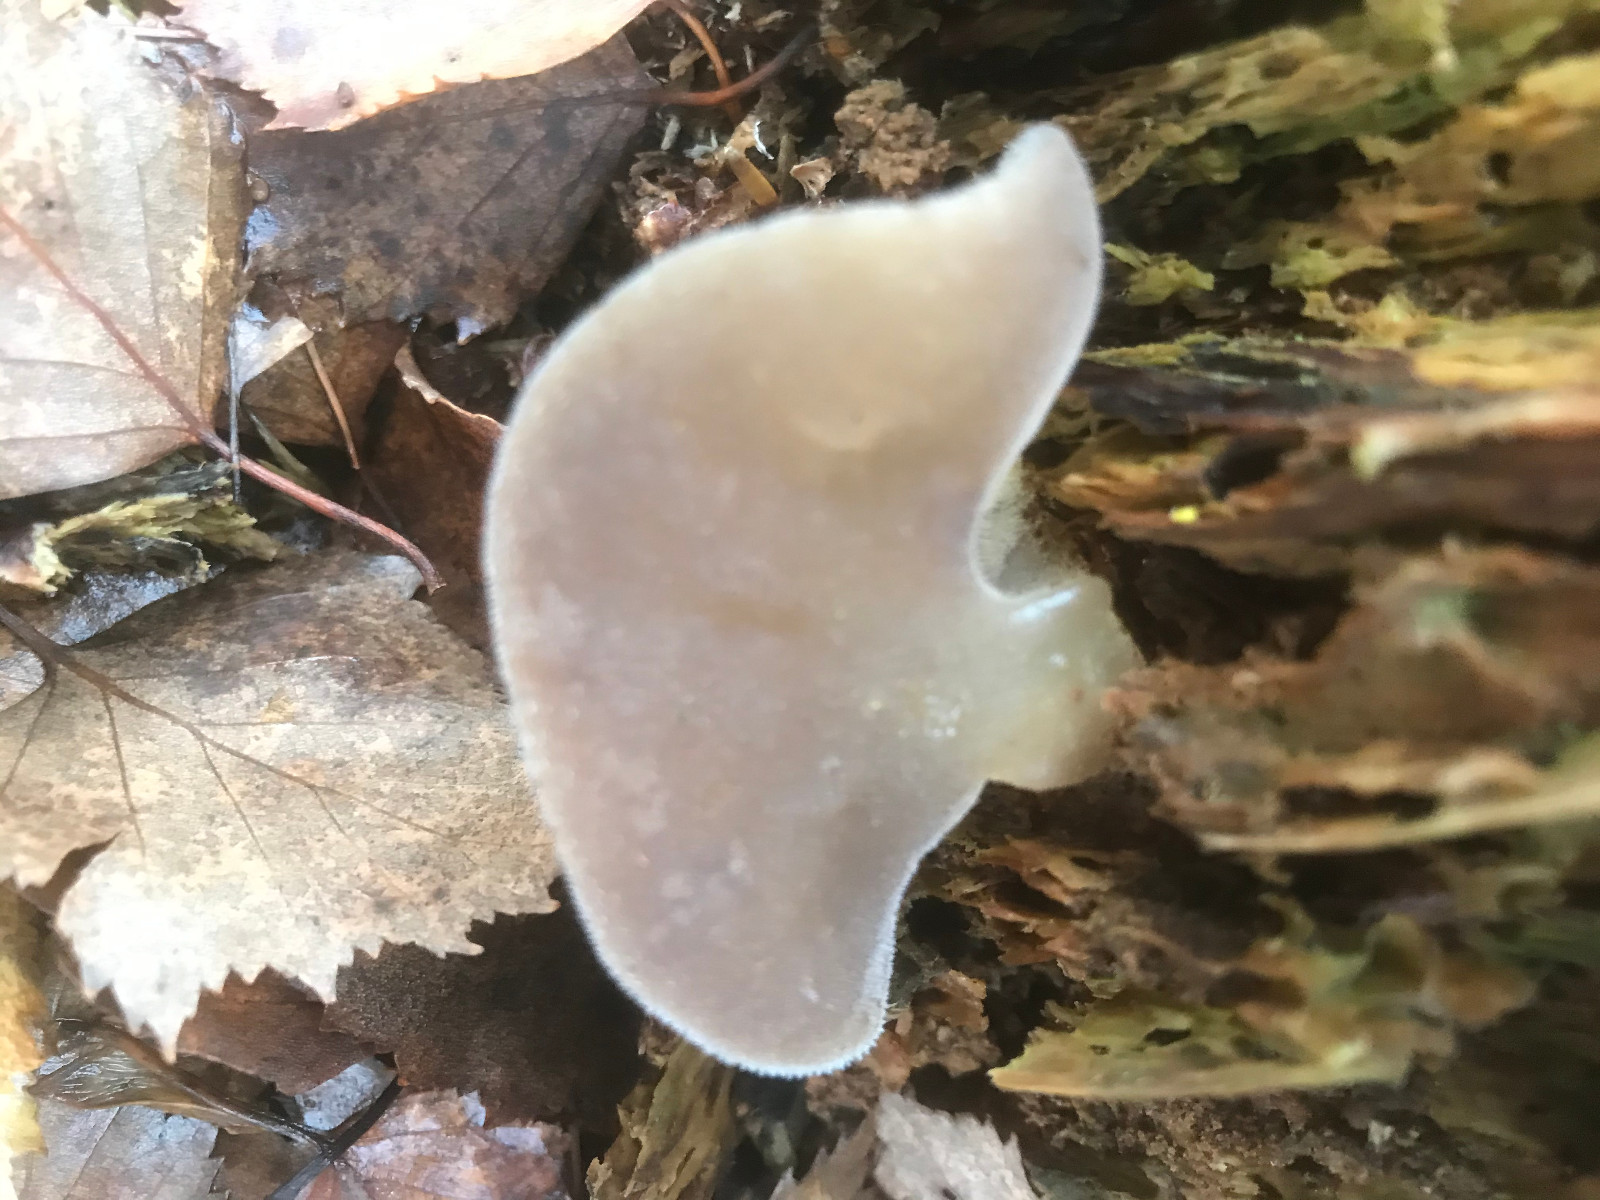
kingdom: Fungi
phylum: Basidiomycota
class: Agaricomycetes
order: Auriculariales
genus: Pseudohydnum
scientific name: Pseudohydnum gelatinosum
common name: bævretand
